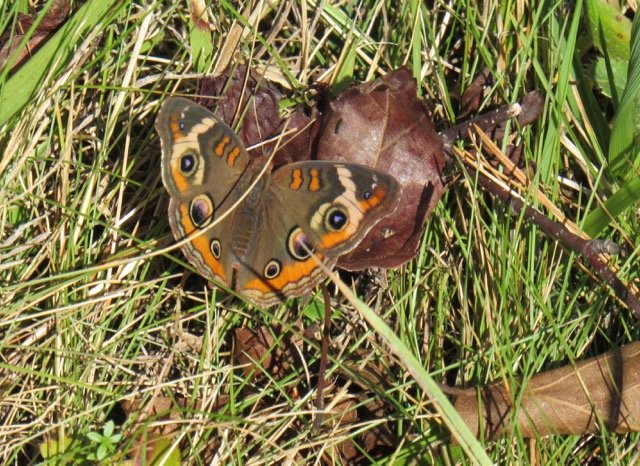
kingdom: Animalia
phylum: Arthropoda
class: Insecta
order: Lepidoptera
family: Nymphalidae
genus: Junonia
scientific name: Junonia coenia
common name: Common Buckeye
